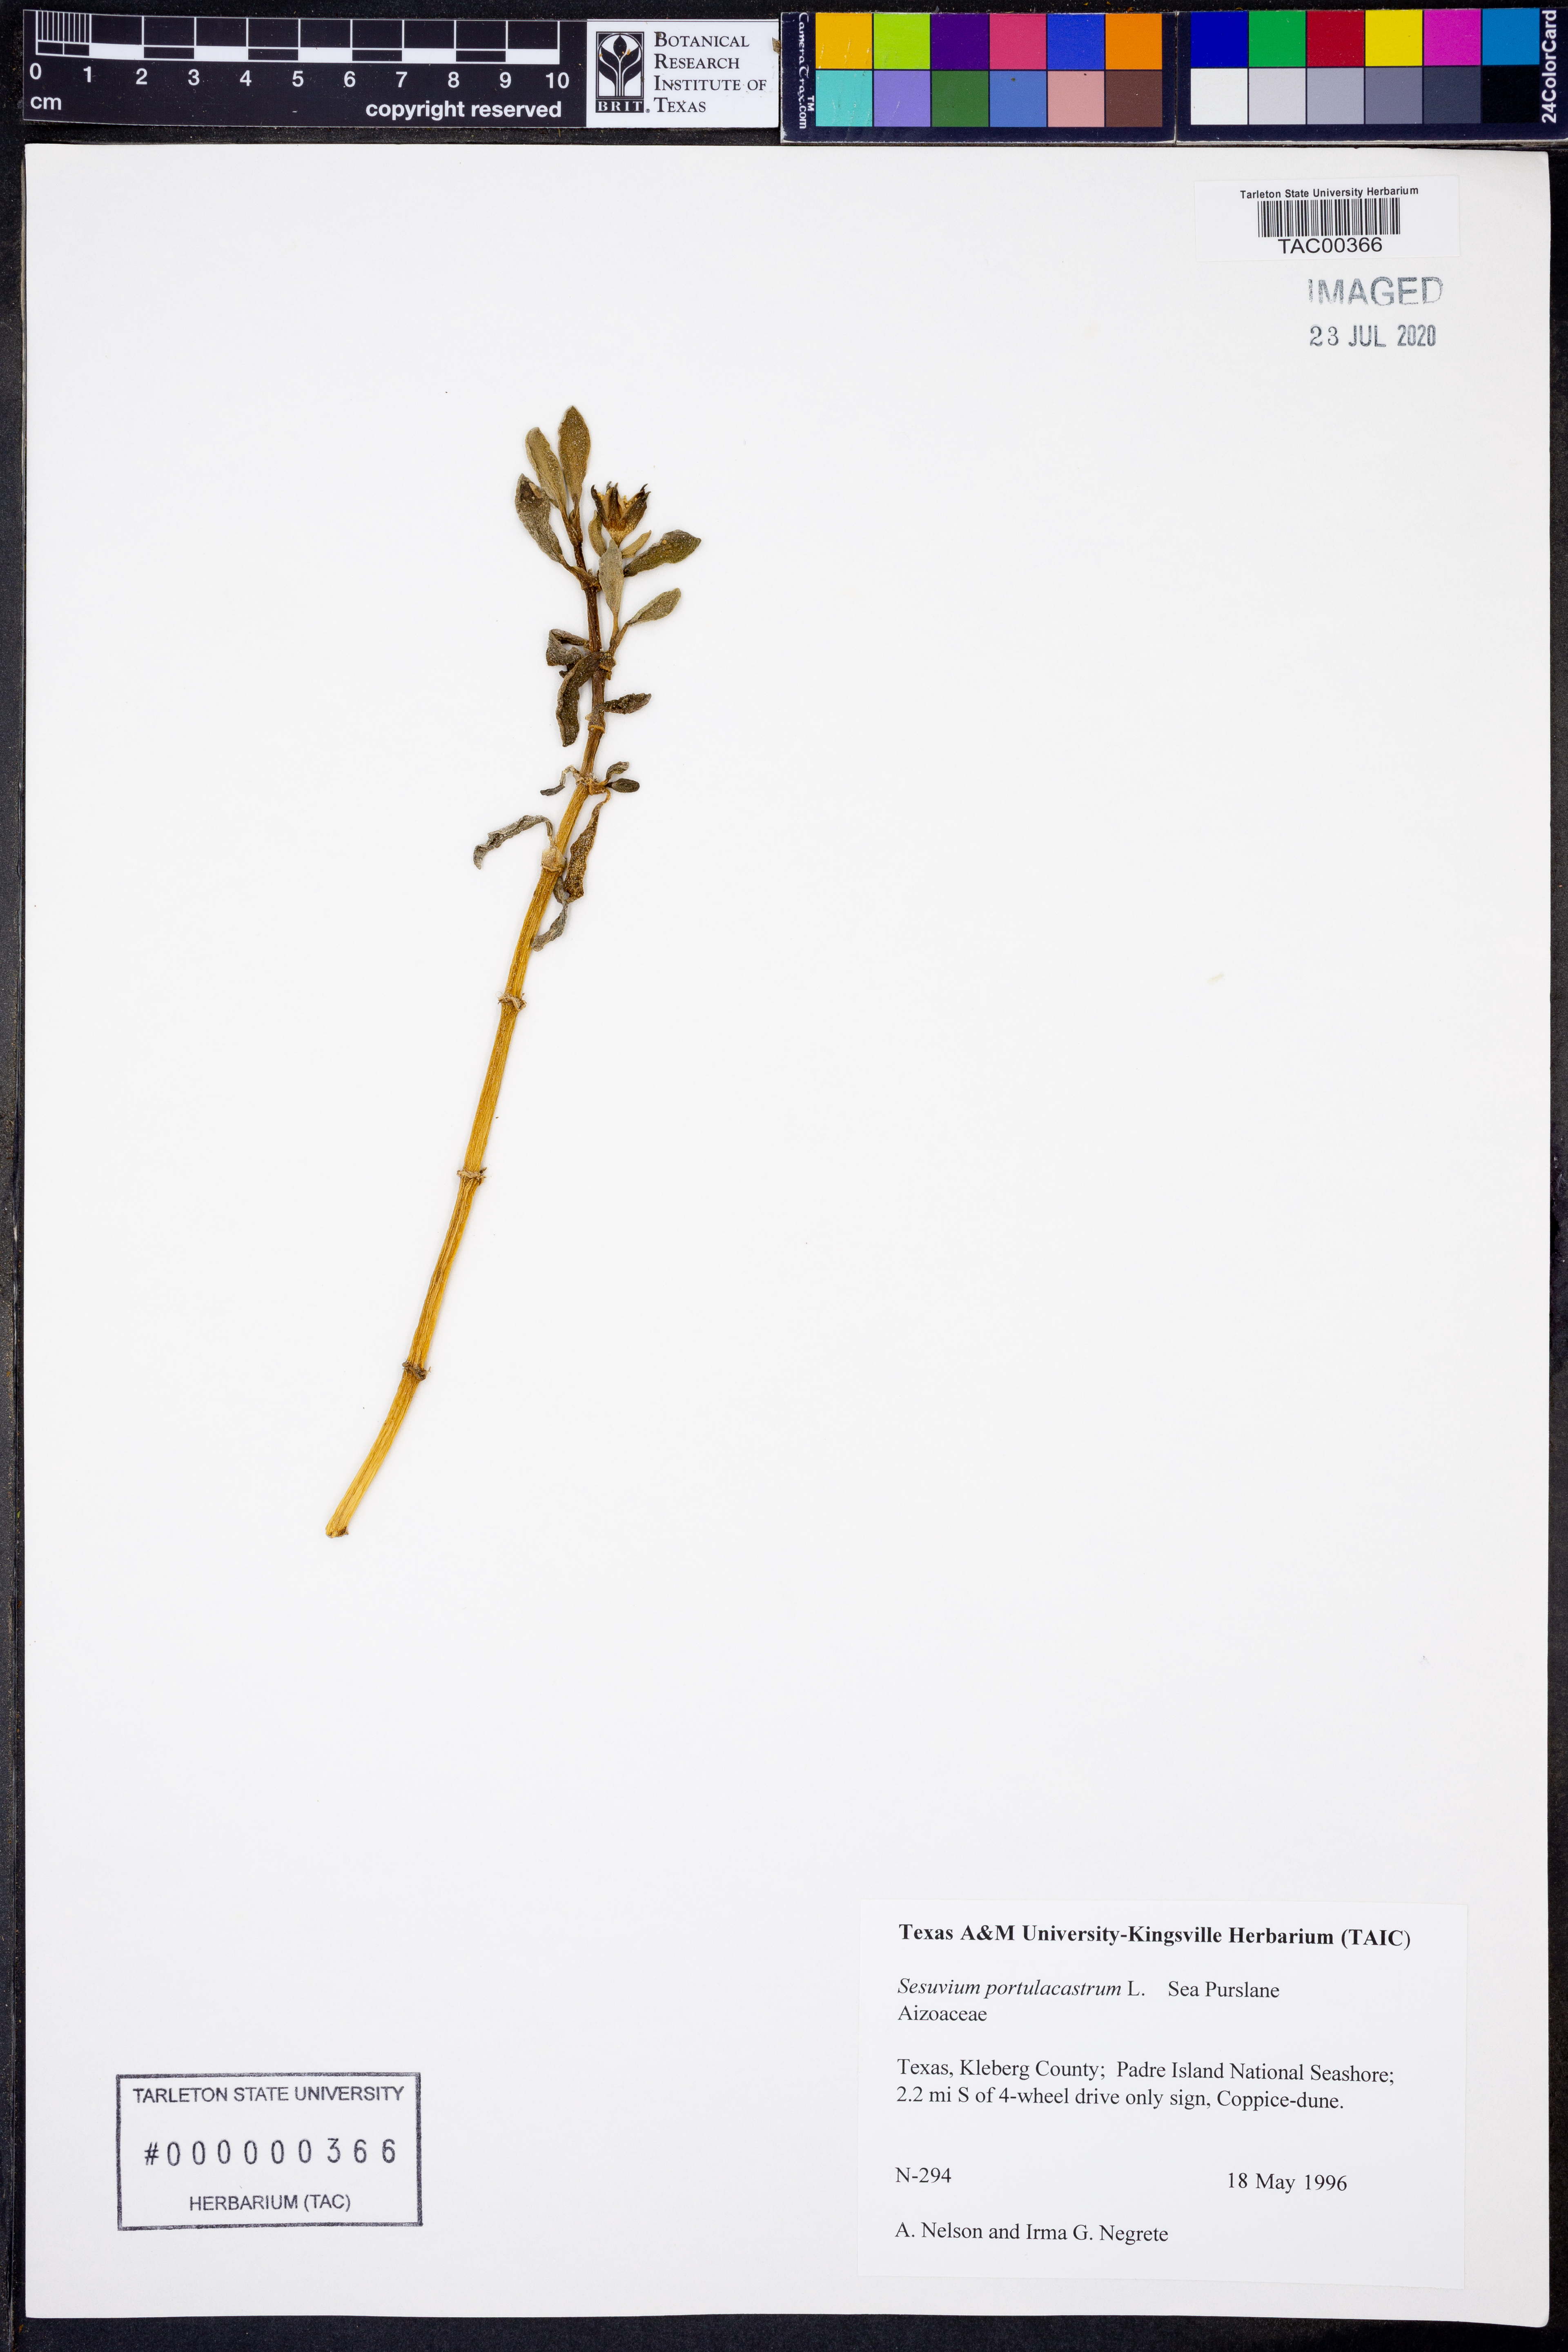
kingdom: Plantae
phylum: Tracheophyta
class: Magnoliopsida
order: Caryophyllales
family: Aizoaceae
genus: Sesuvium
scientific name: Sesuvium portulacastrum
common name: Sea-purslane
